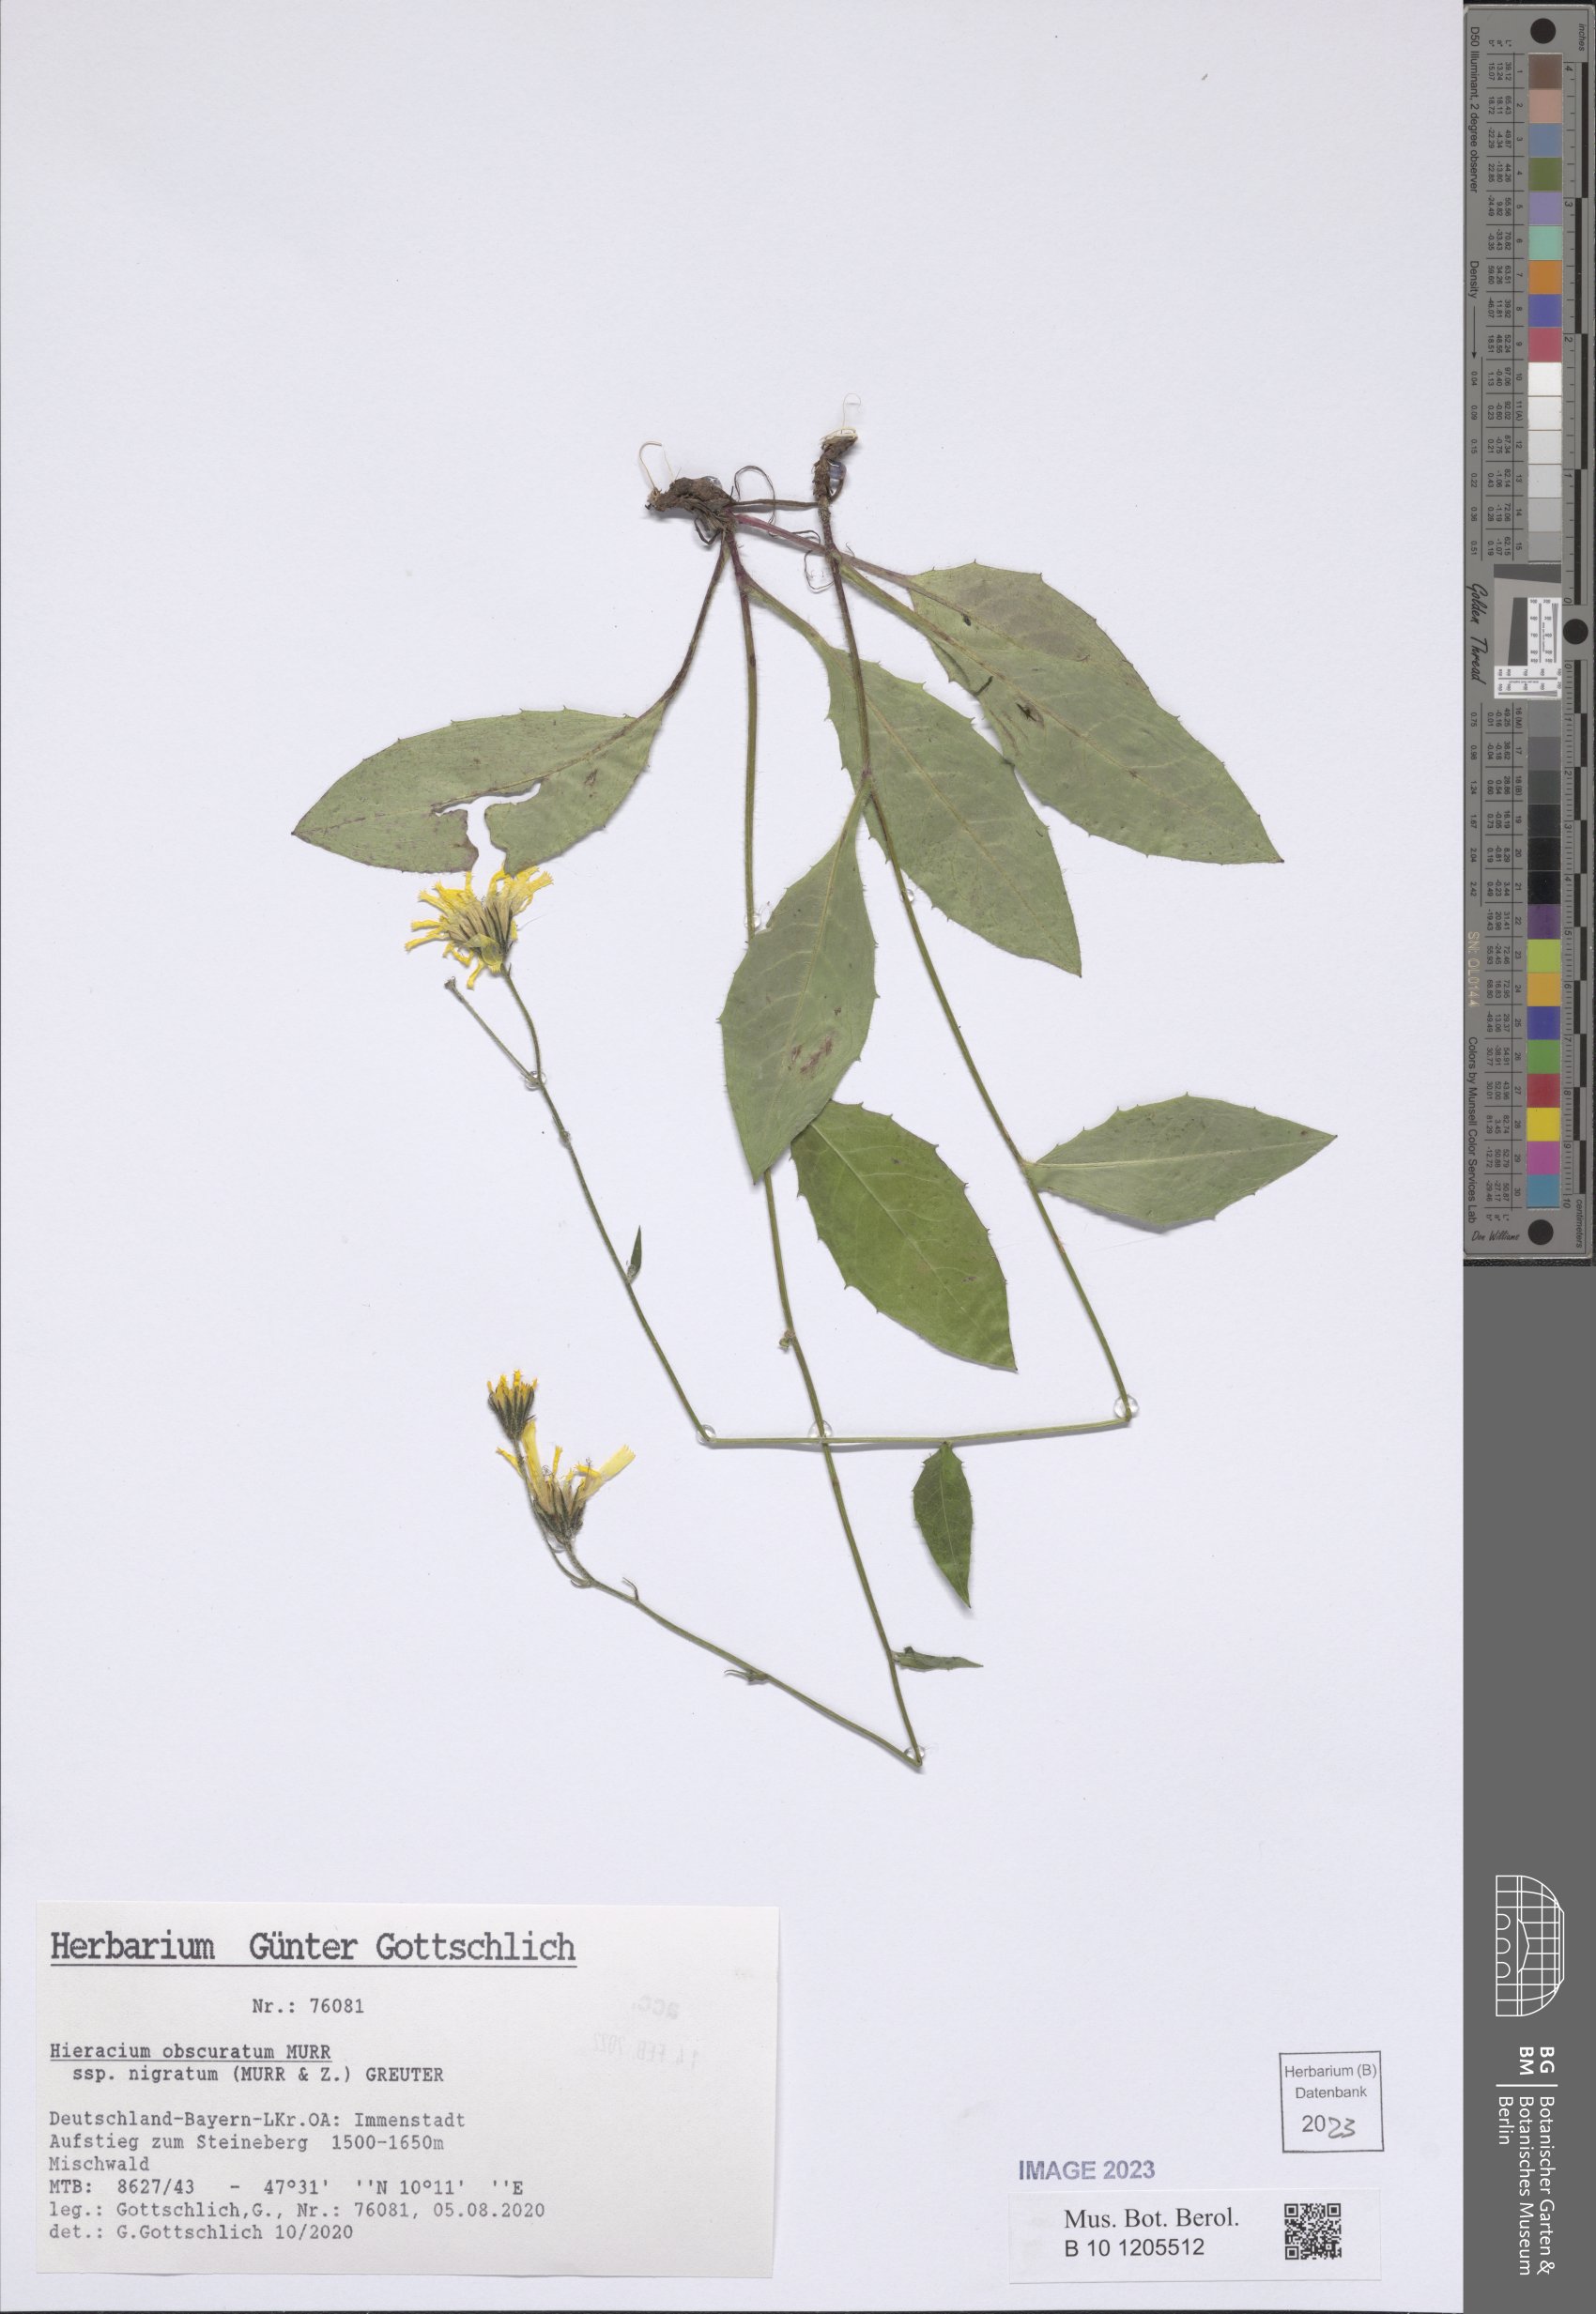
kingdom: Plantae
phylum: Tracheophyta
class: Magnoliopsida
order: Asterales
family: Asteraceae
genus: Hieracium
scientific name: Hieracium obscuratum
